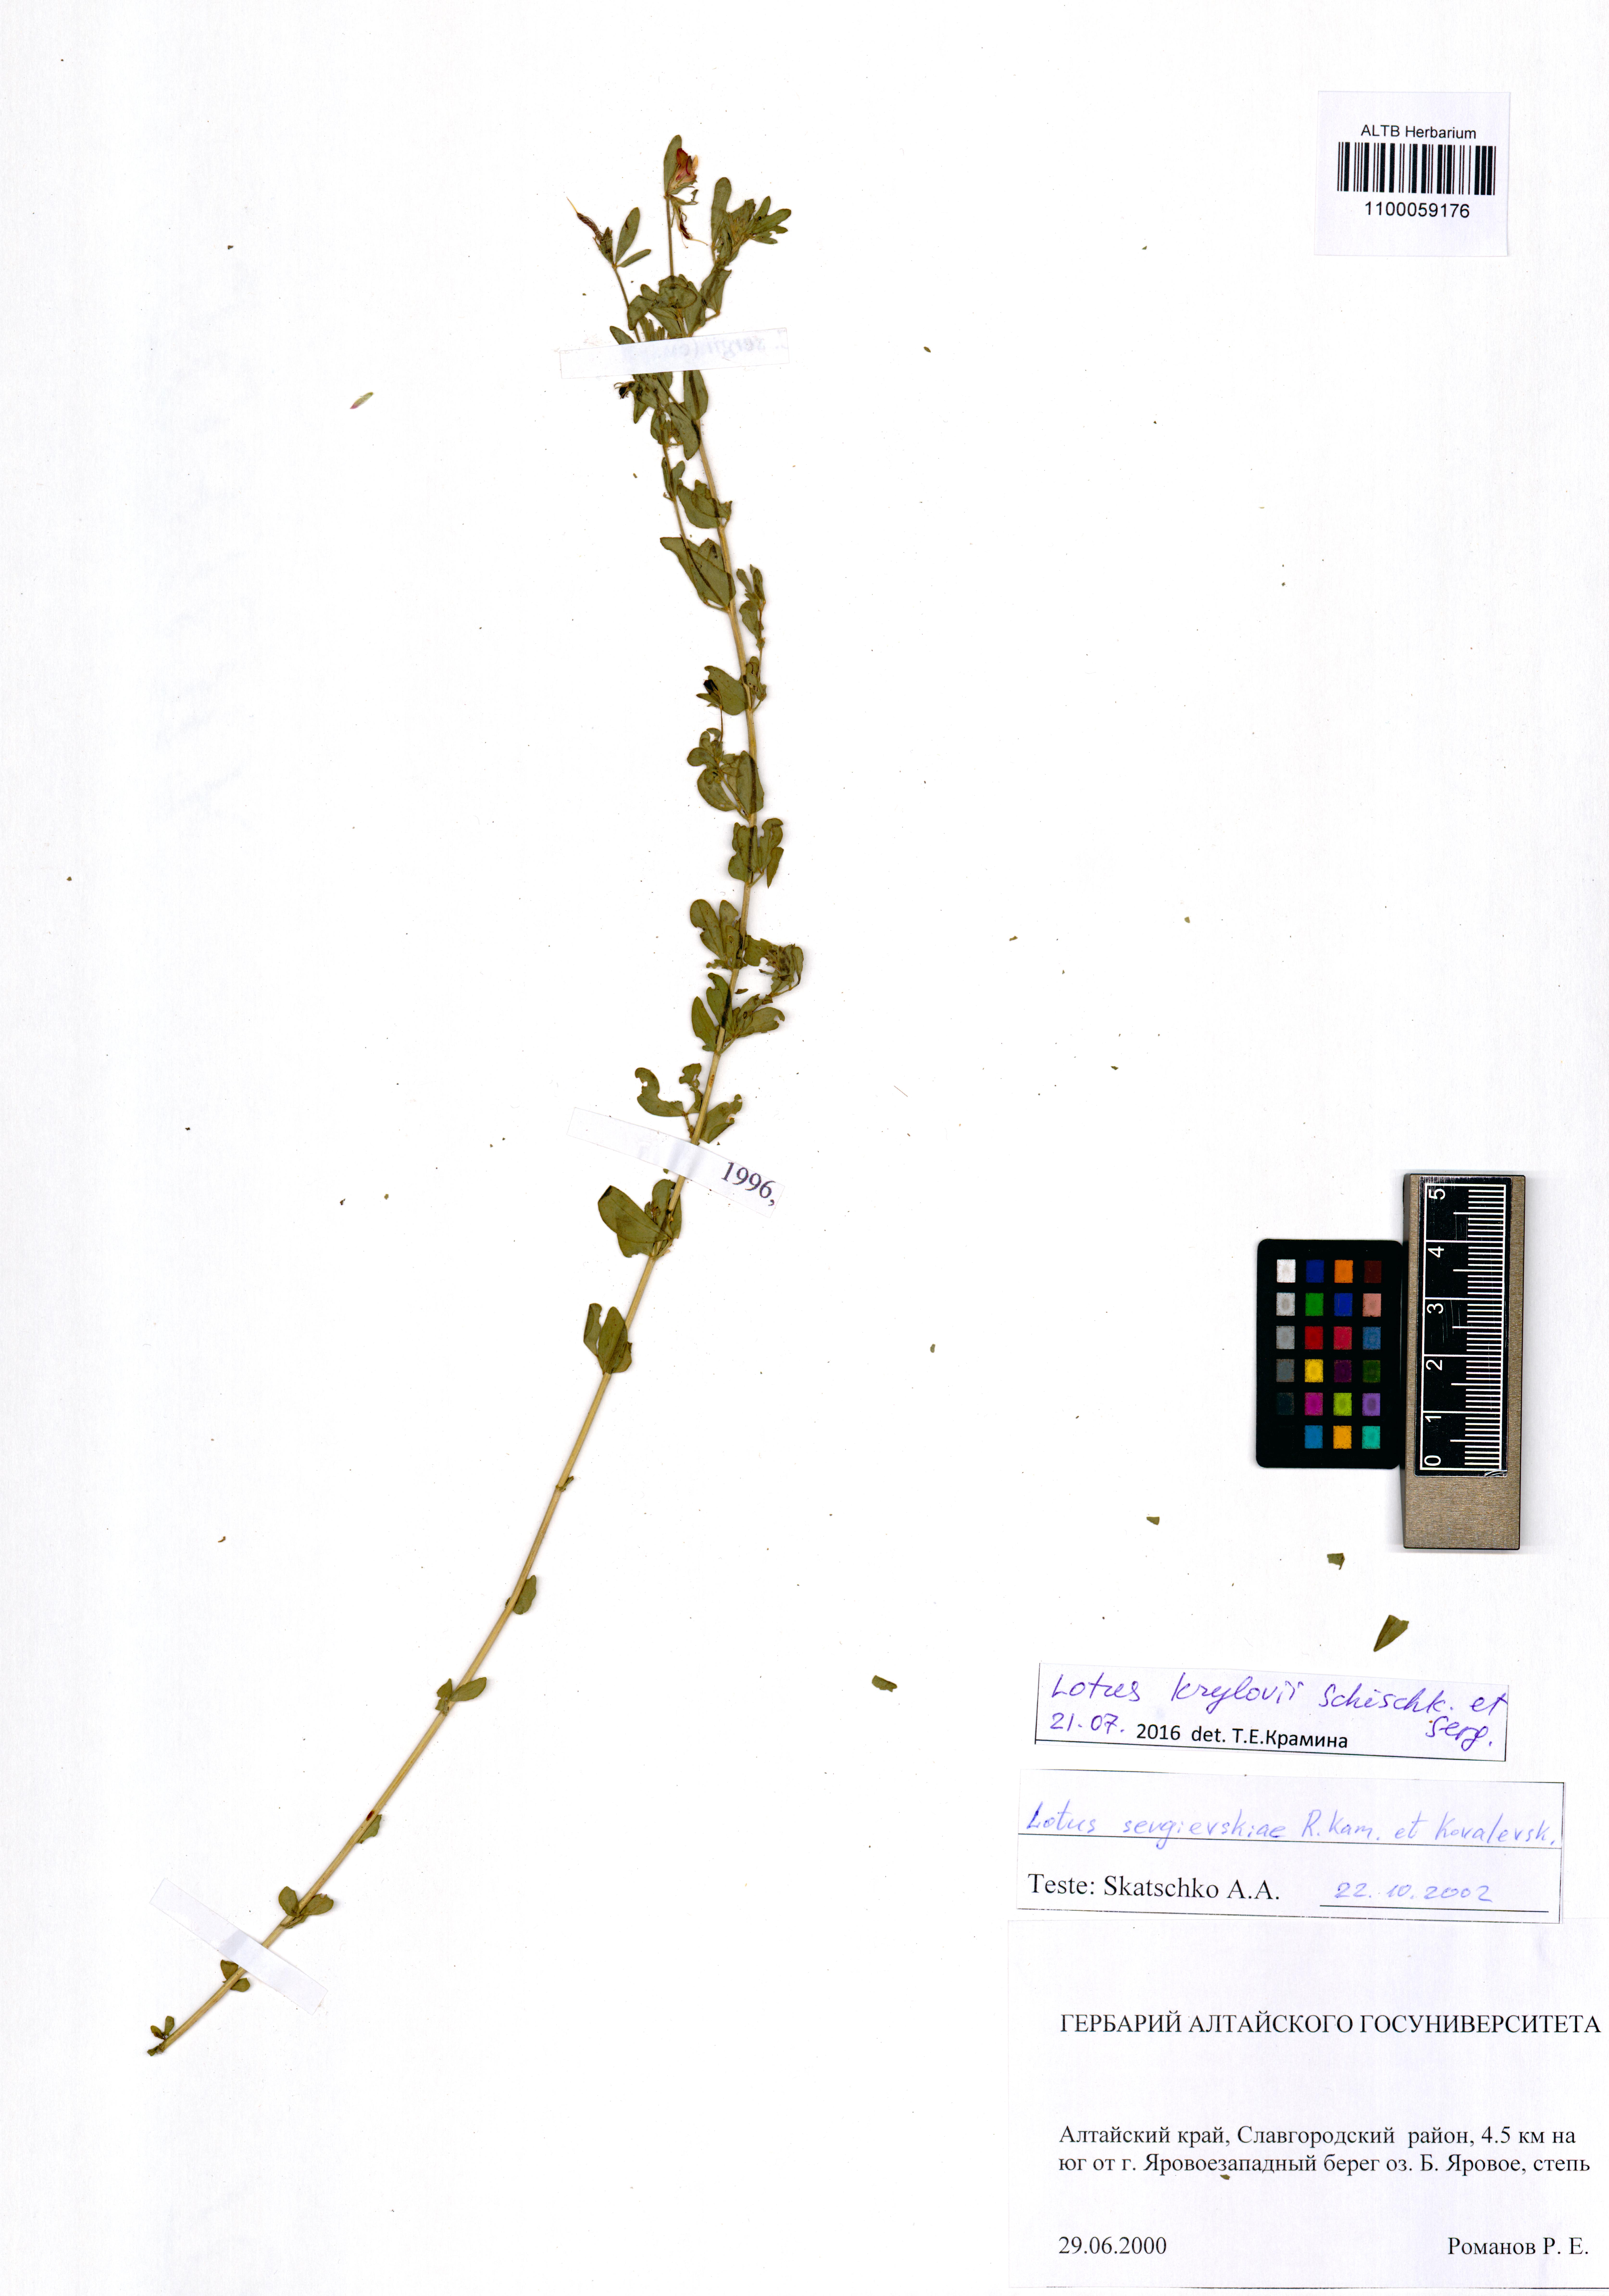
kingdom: Plantae
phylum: Tracheophyta
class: Magnoliopsida
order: Fabales
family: Fabaceae
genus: Lotus
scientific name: Lotus krylovii
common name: Krylov's bird's-foot trefoil
